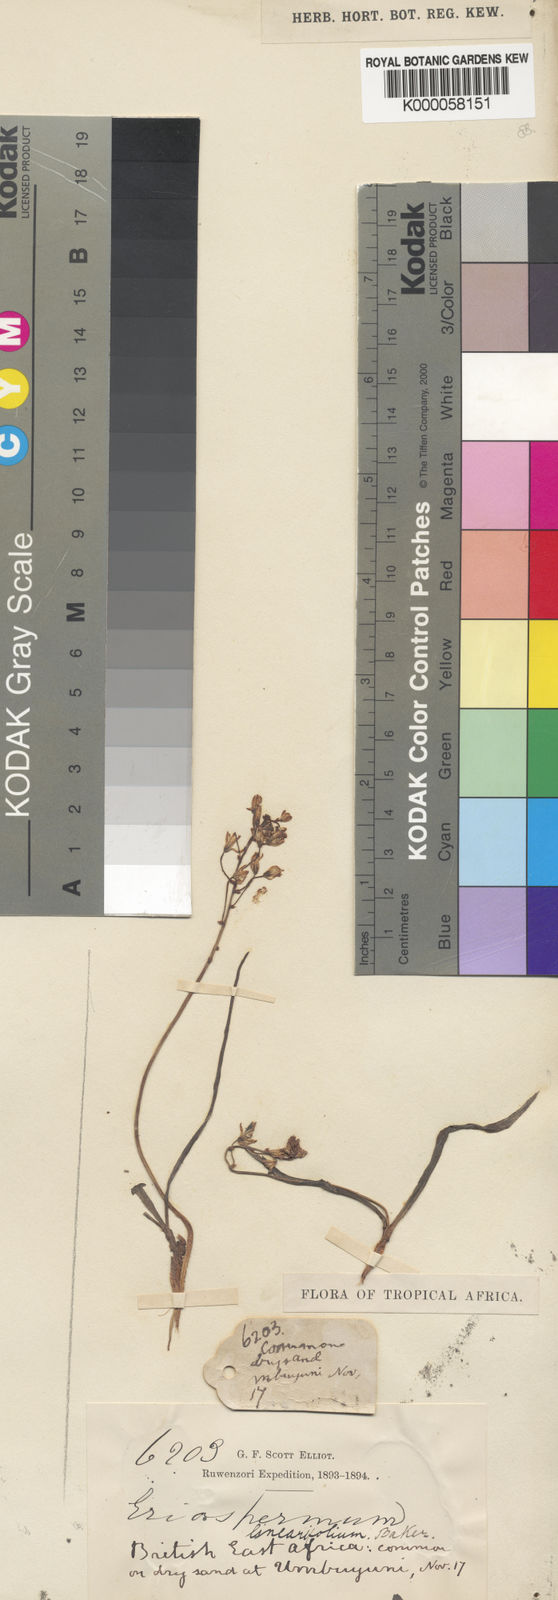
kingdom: Plantae
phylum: Tracheophyta
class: Liliopsida
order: Asparagales
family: Asparagaceae
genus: Eriospermum
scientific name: Eriospermum triphyllum
